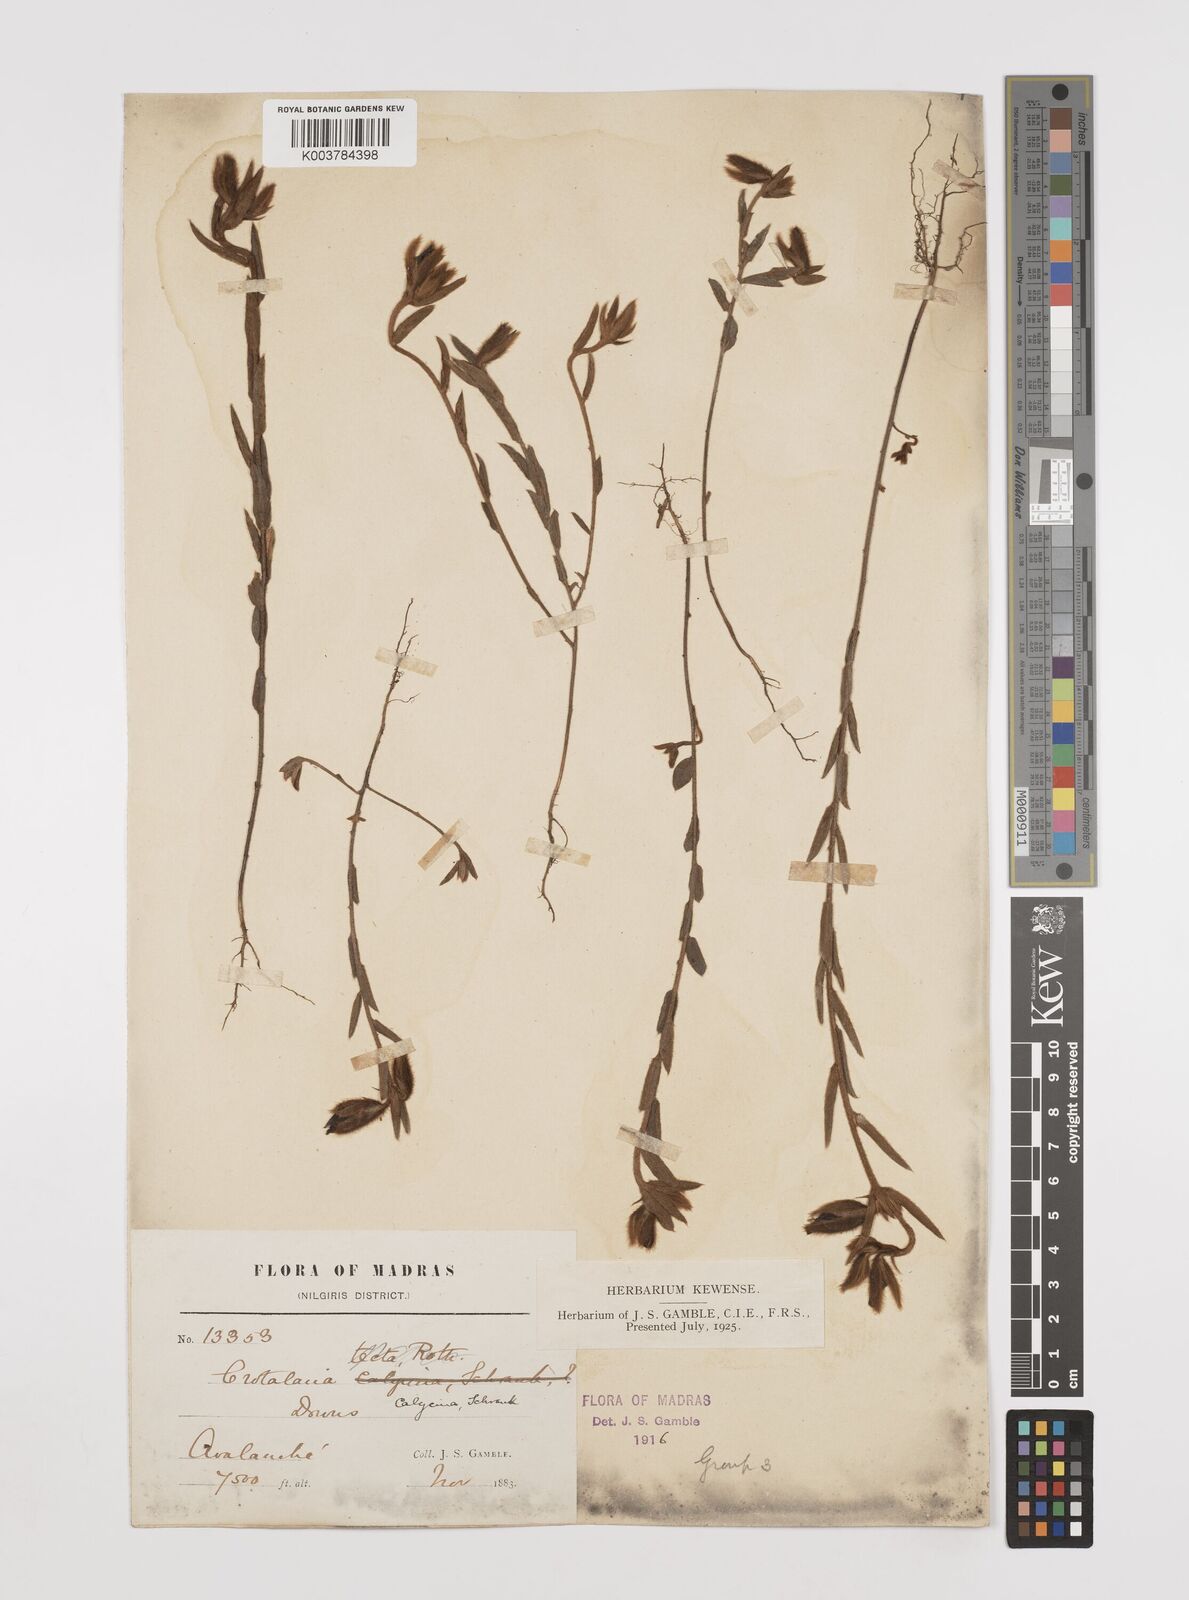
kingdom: Plantae
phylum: Tracheophyta
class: Magnoliopsida
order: Fabales
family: Fabaceae
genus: Crotalaria
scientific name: Crotalaria calycina
